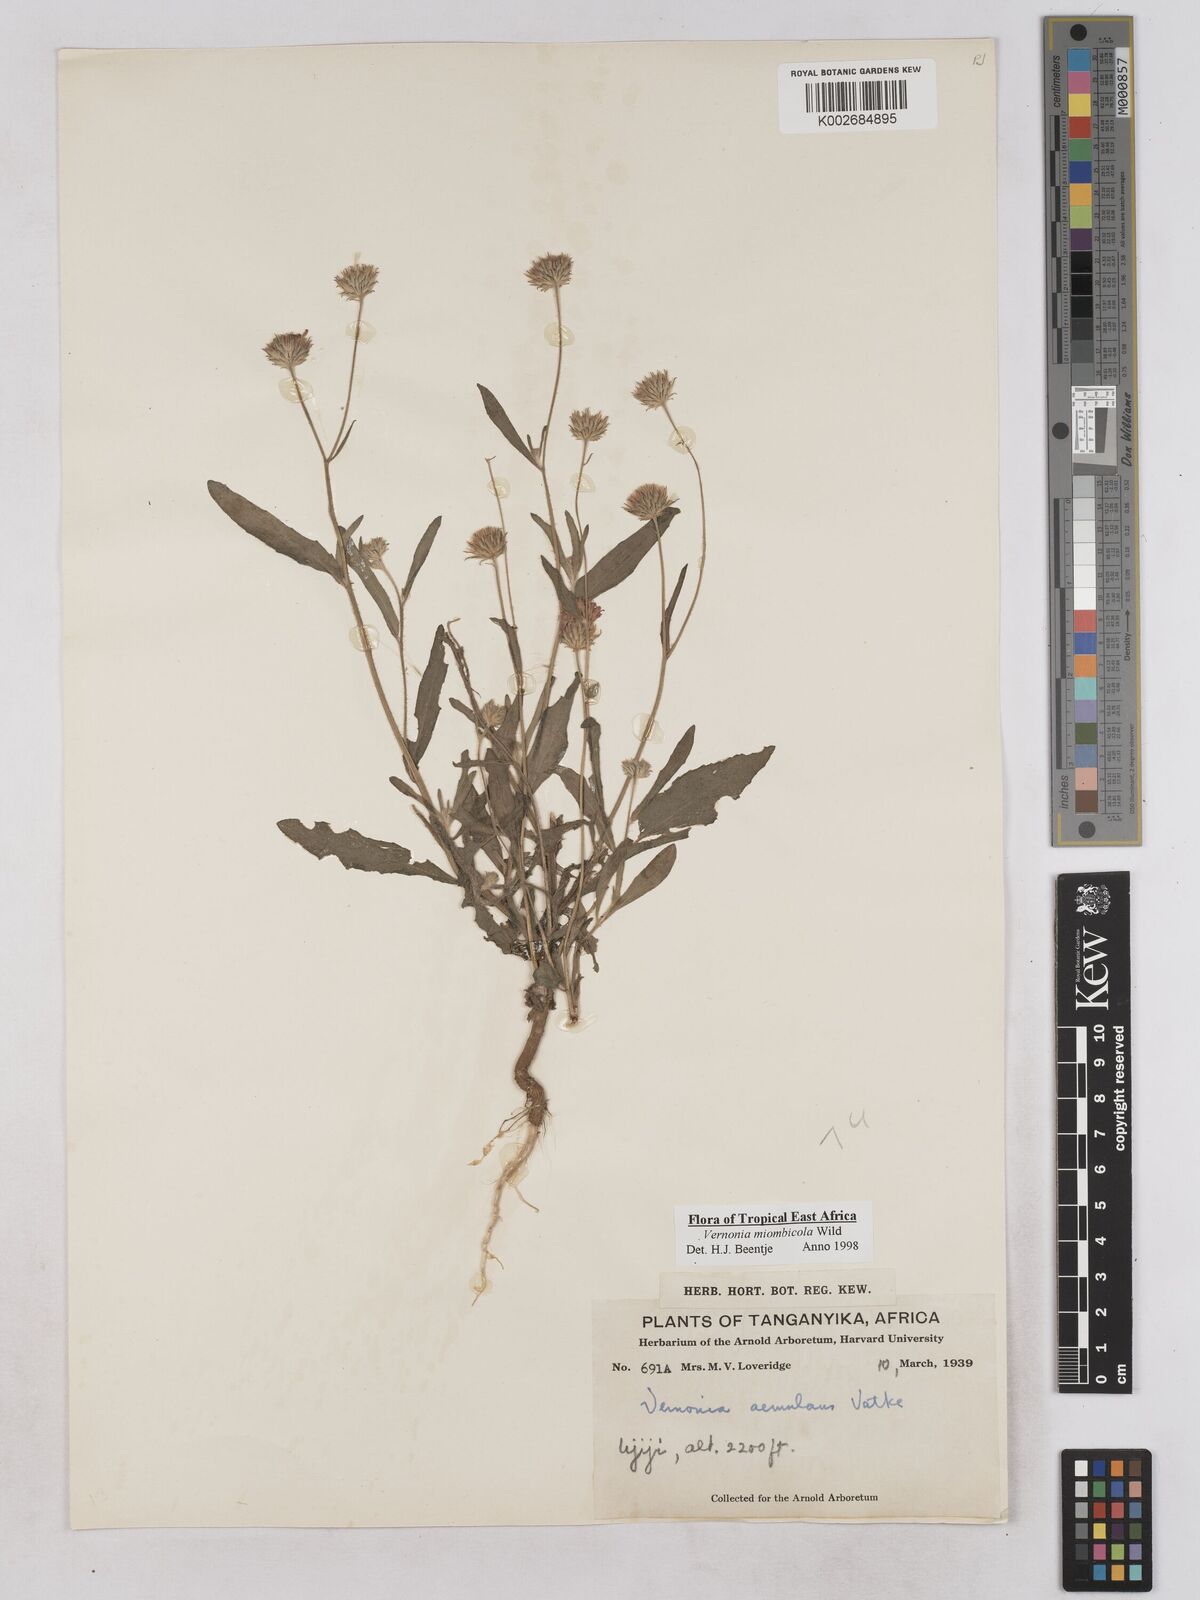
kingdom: Plantae
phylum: Tracheophyta
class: Magnoliopsida
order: Asterales
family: Asteraceae
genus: Vernonia
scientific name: Vernonia miombicola
